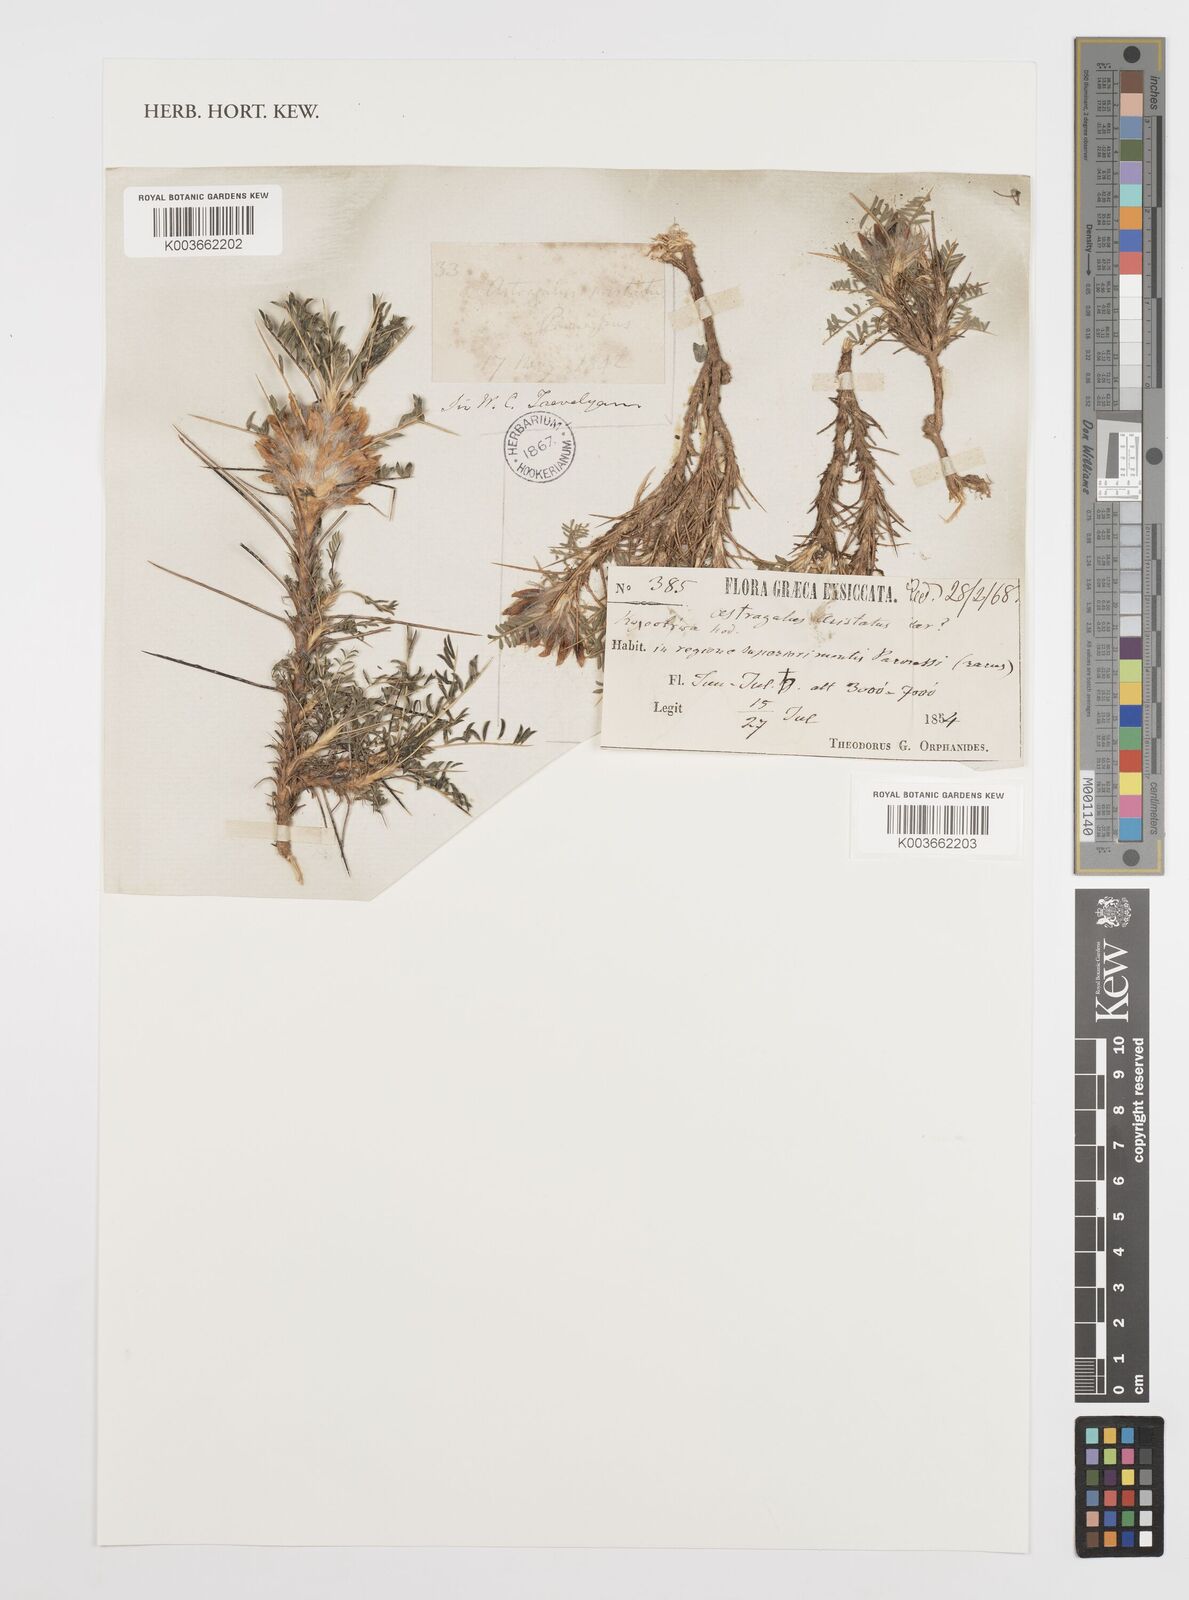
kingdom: Plantae
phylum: Tracheophyta
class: Magnoliopsida
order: Fabales
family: Fabaceae
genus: Astragalus
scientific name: Astragalus parnassi
